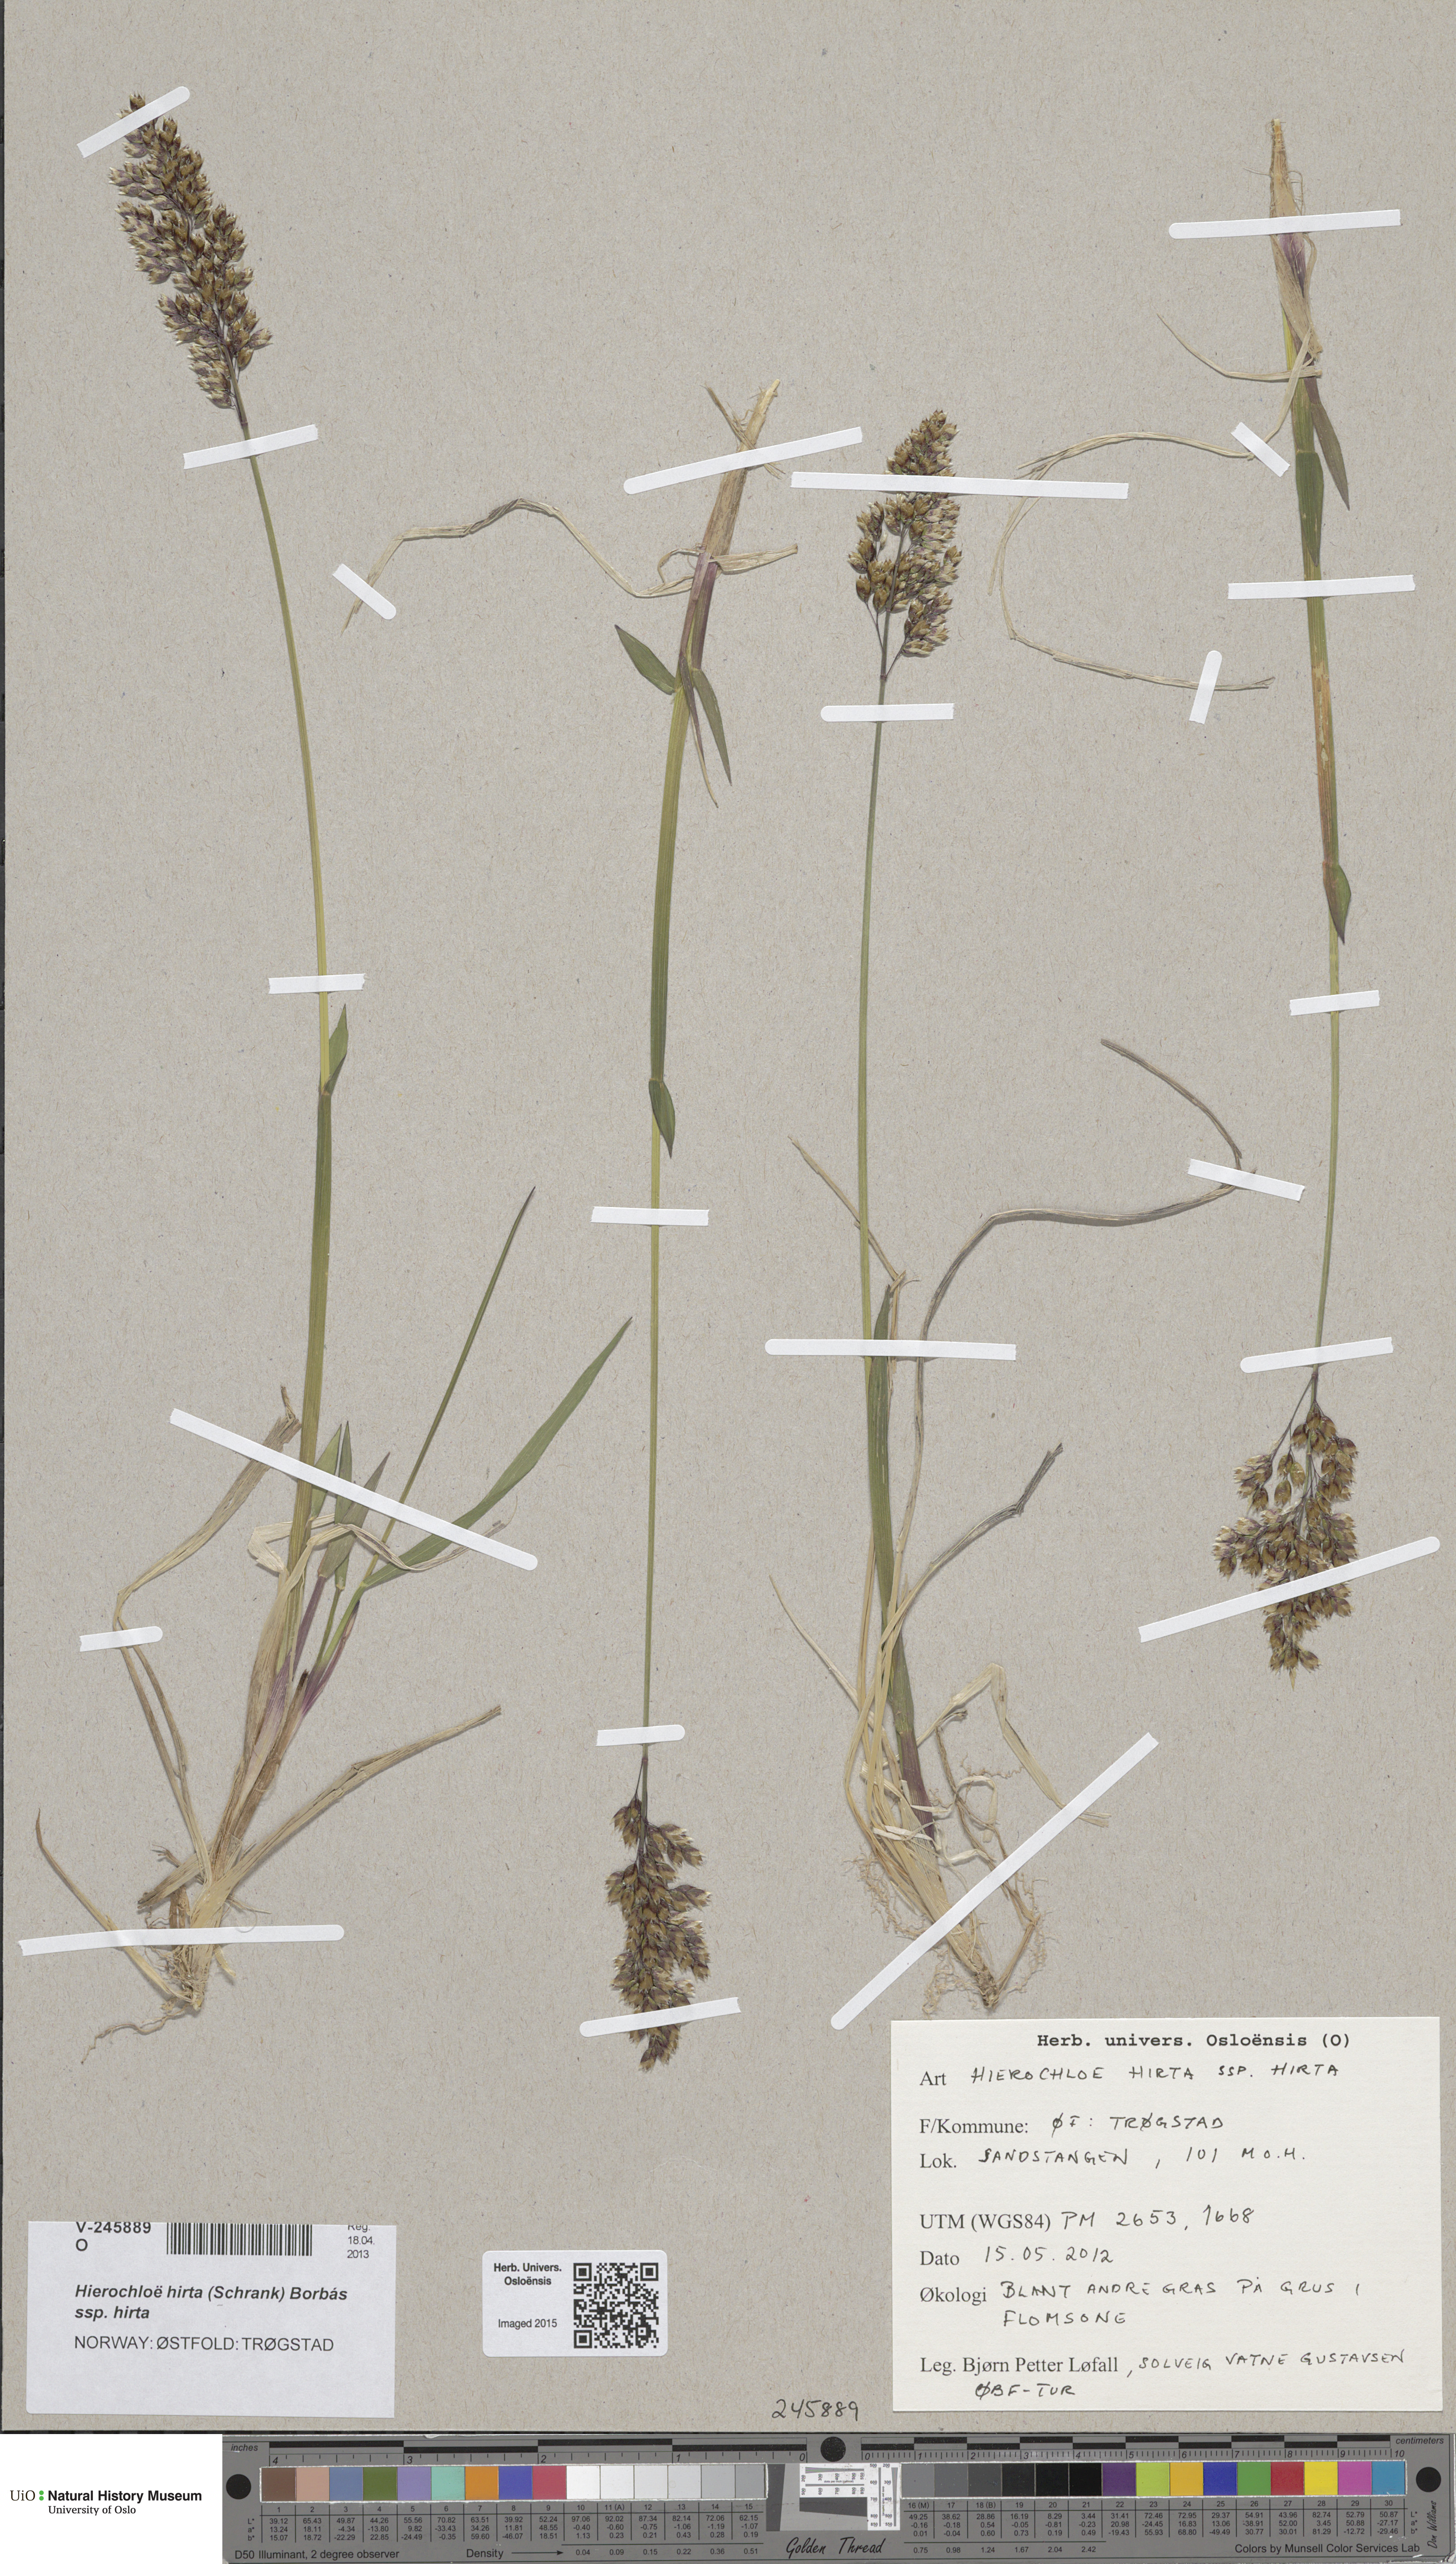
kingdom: Plantae
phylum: Tracheophyta
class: Liliopsida
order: Poales
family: Poaceae
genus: Anthoxanthum
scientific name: Anthoxanthum nitens
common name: Holy grass
